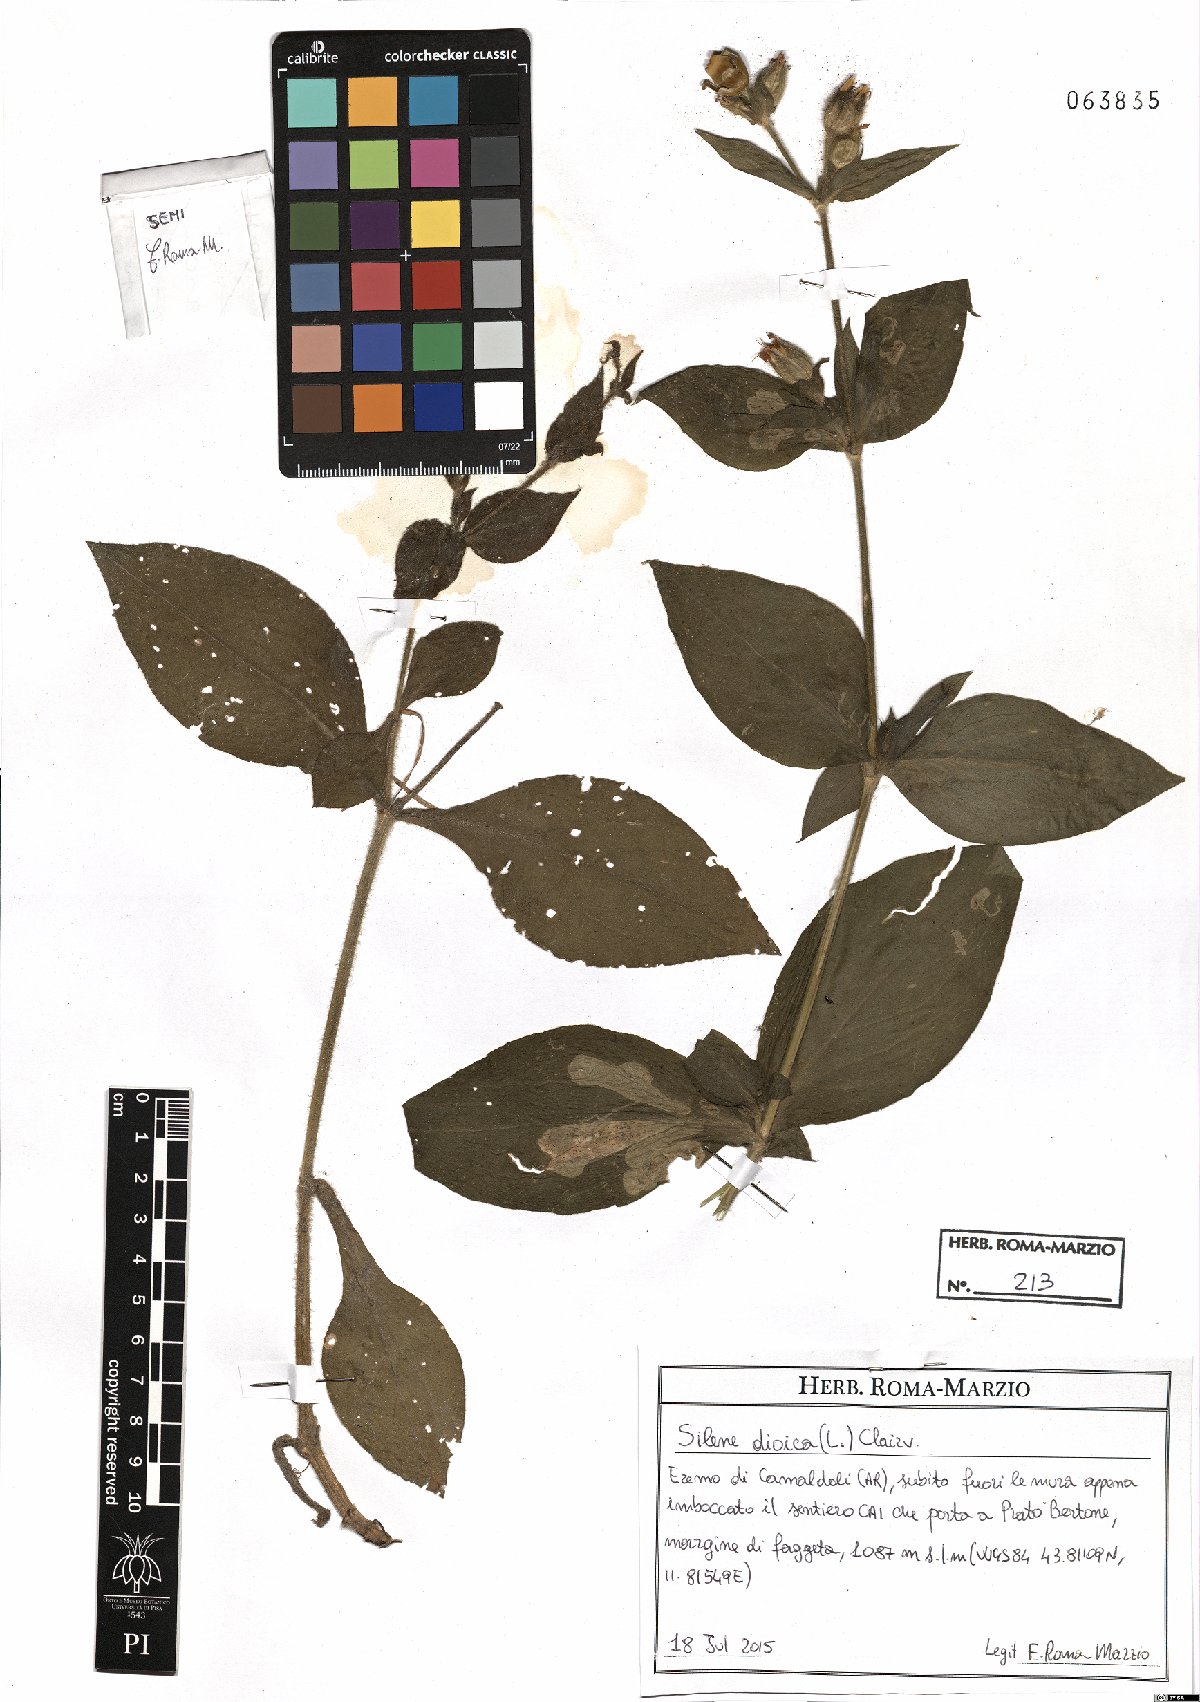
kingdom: Plantae
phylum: Tracheophyta
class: Magnoliopsida
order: Caryophyllales
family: Caryophyllaceae
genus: Silene
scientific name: Silene dioica
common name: Red campion
